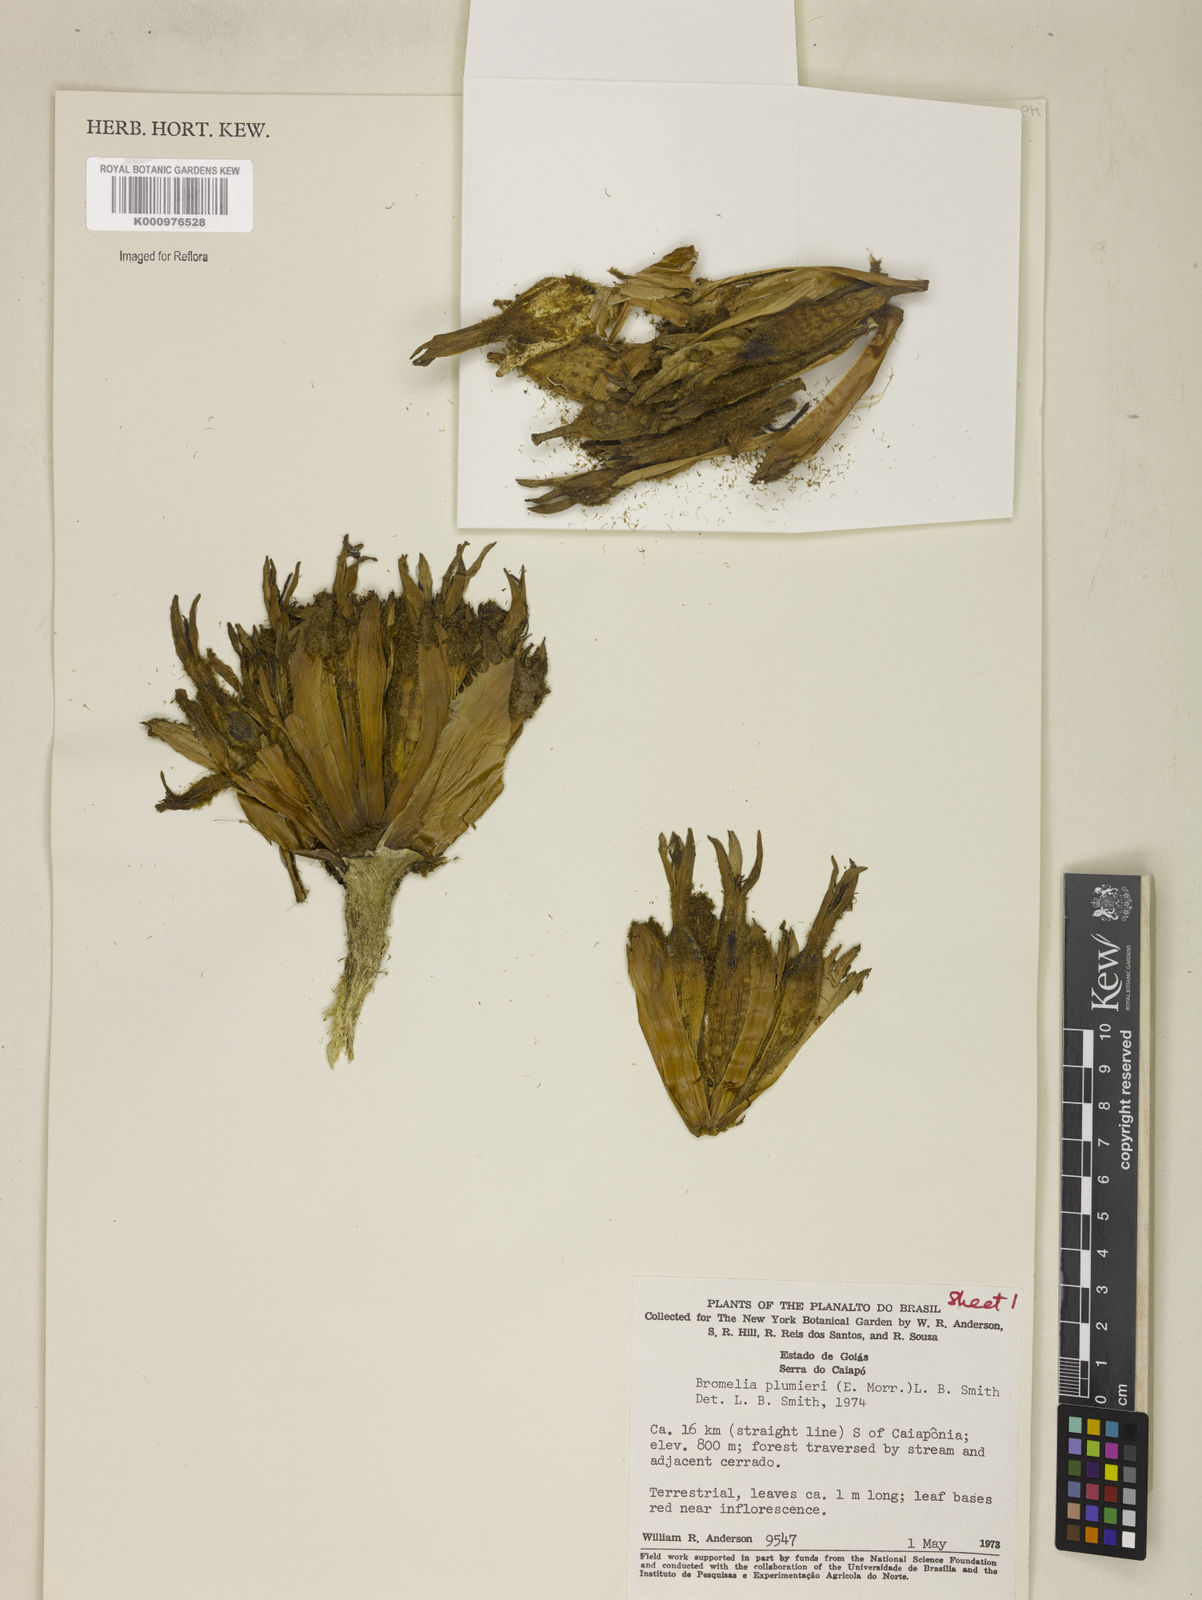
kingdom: Plantae
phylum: Tracheophyta
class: Liliopsida
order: Poales
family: Bromeliaceae
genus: Bromelia
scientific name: Bromelia karatas
